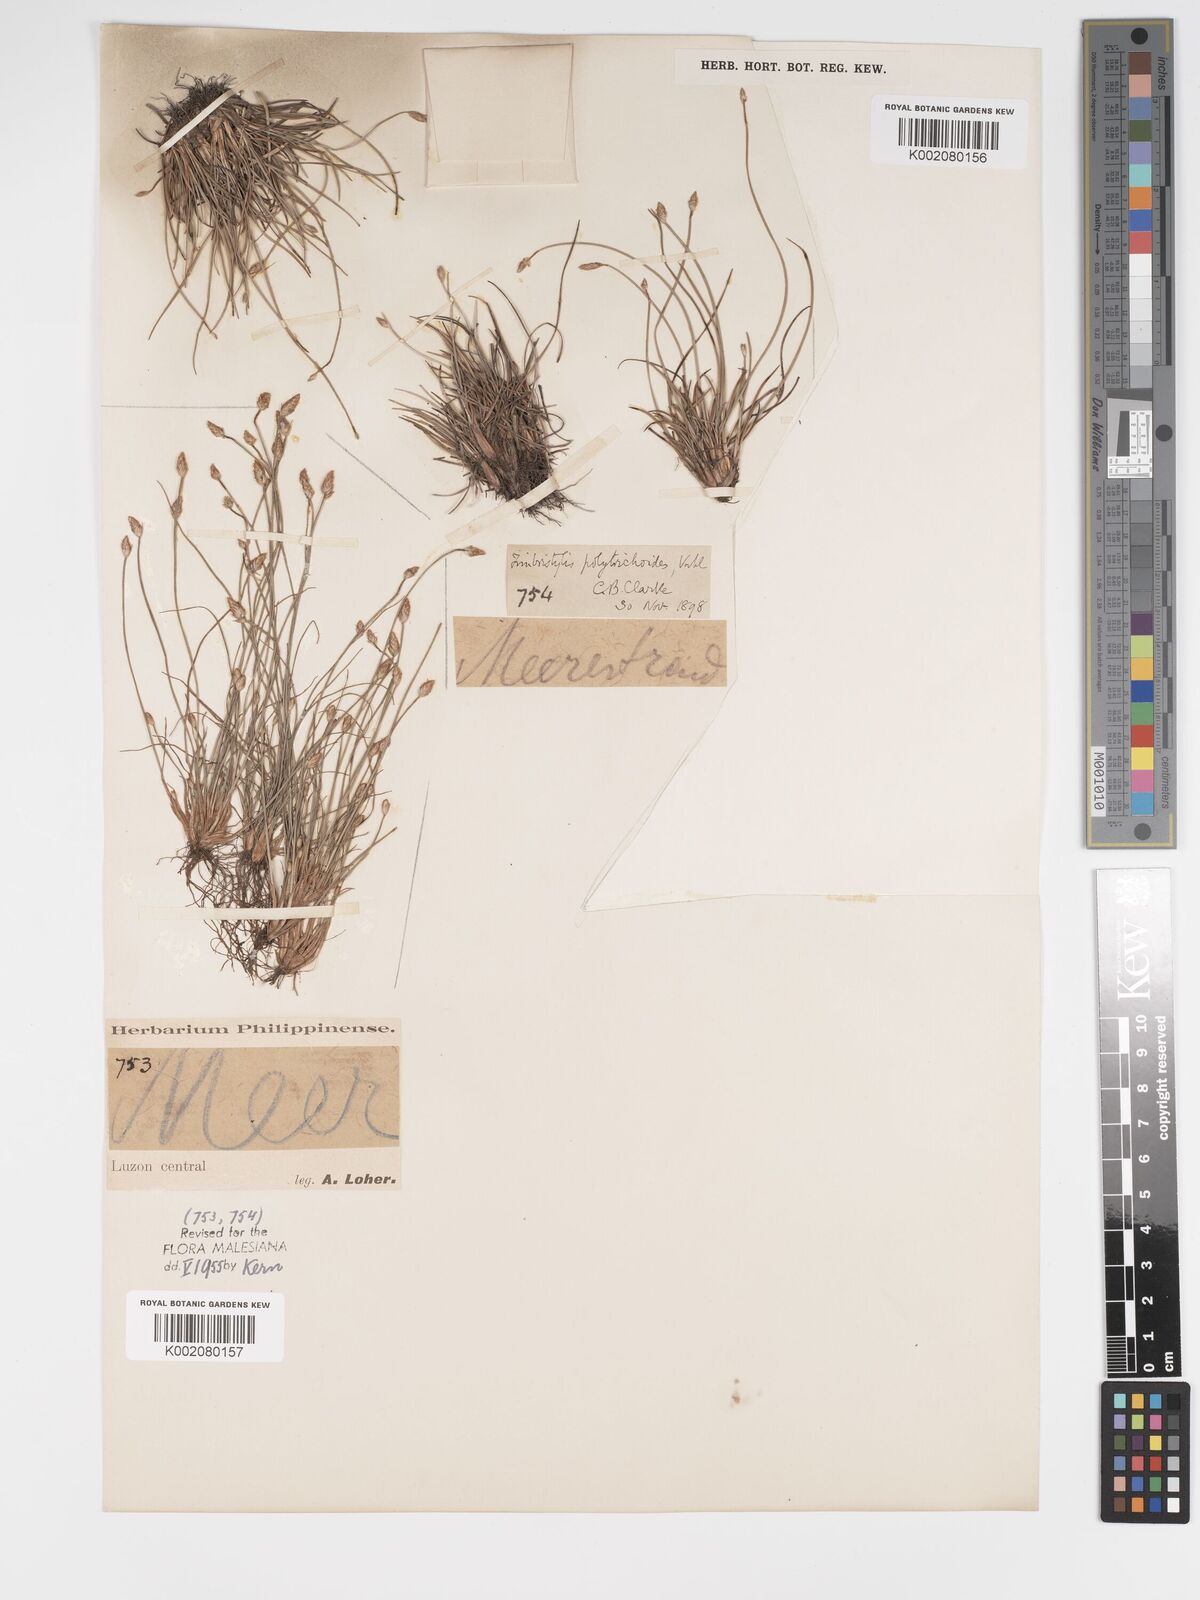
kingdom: Plantae
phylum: Tracheophyta
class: Liliopsida
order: Poales
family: Cyperaceae
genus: Fimbristylis
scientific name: Fimbristylis polytrichoides
